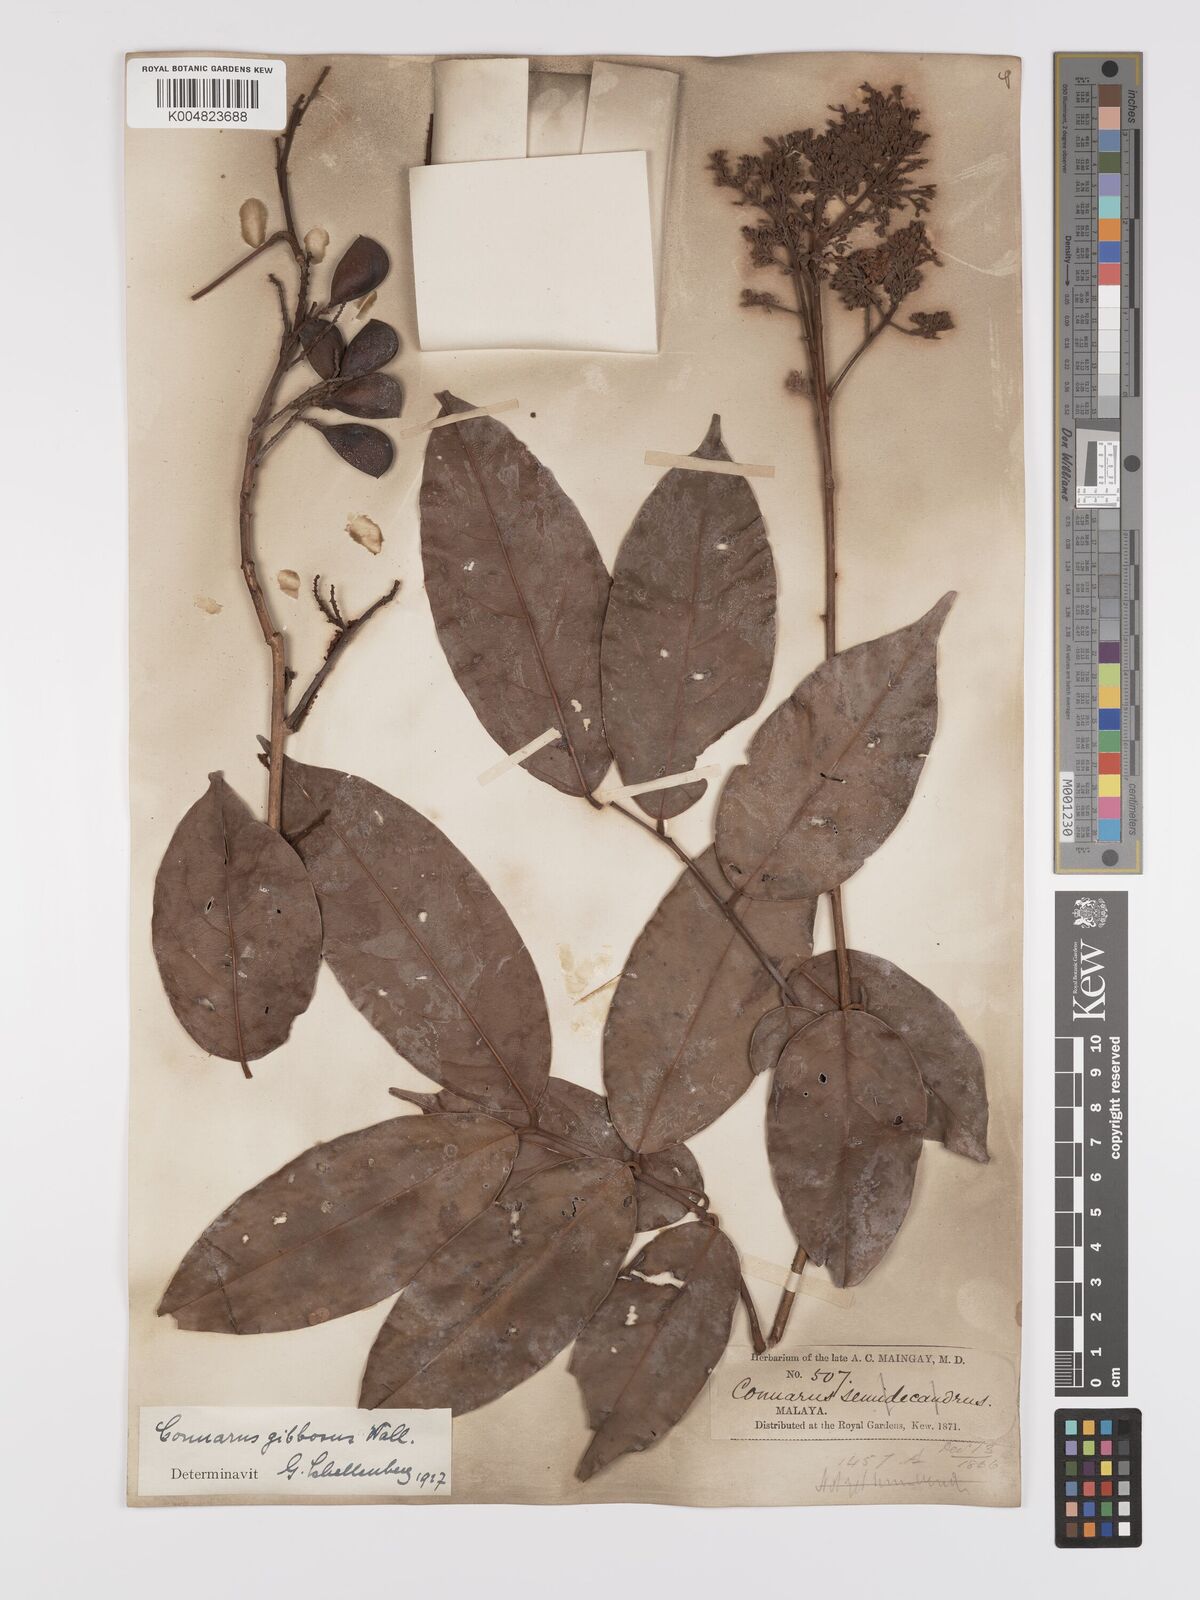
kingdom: Plantae
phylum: Tracheophyta
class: Magnoliopsida
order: Oxalidales
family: Connaraceae
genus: Connarus
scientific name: Connarus semidecandrus
